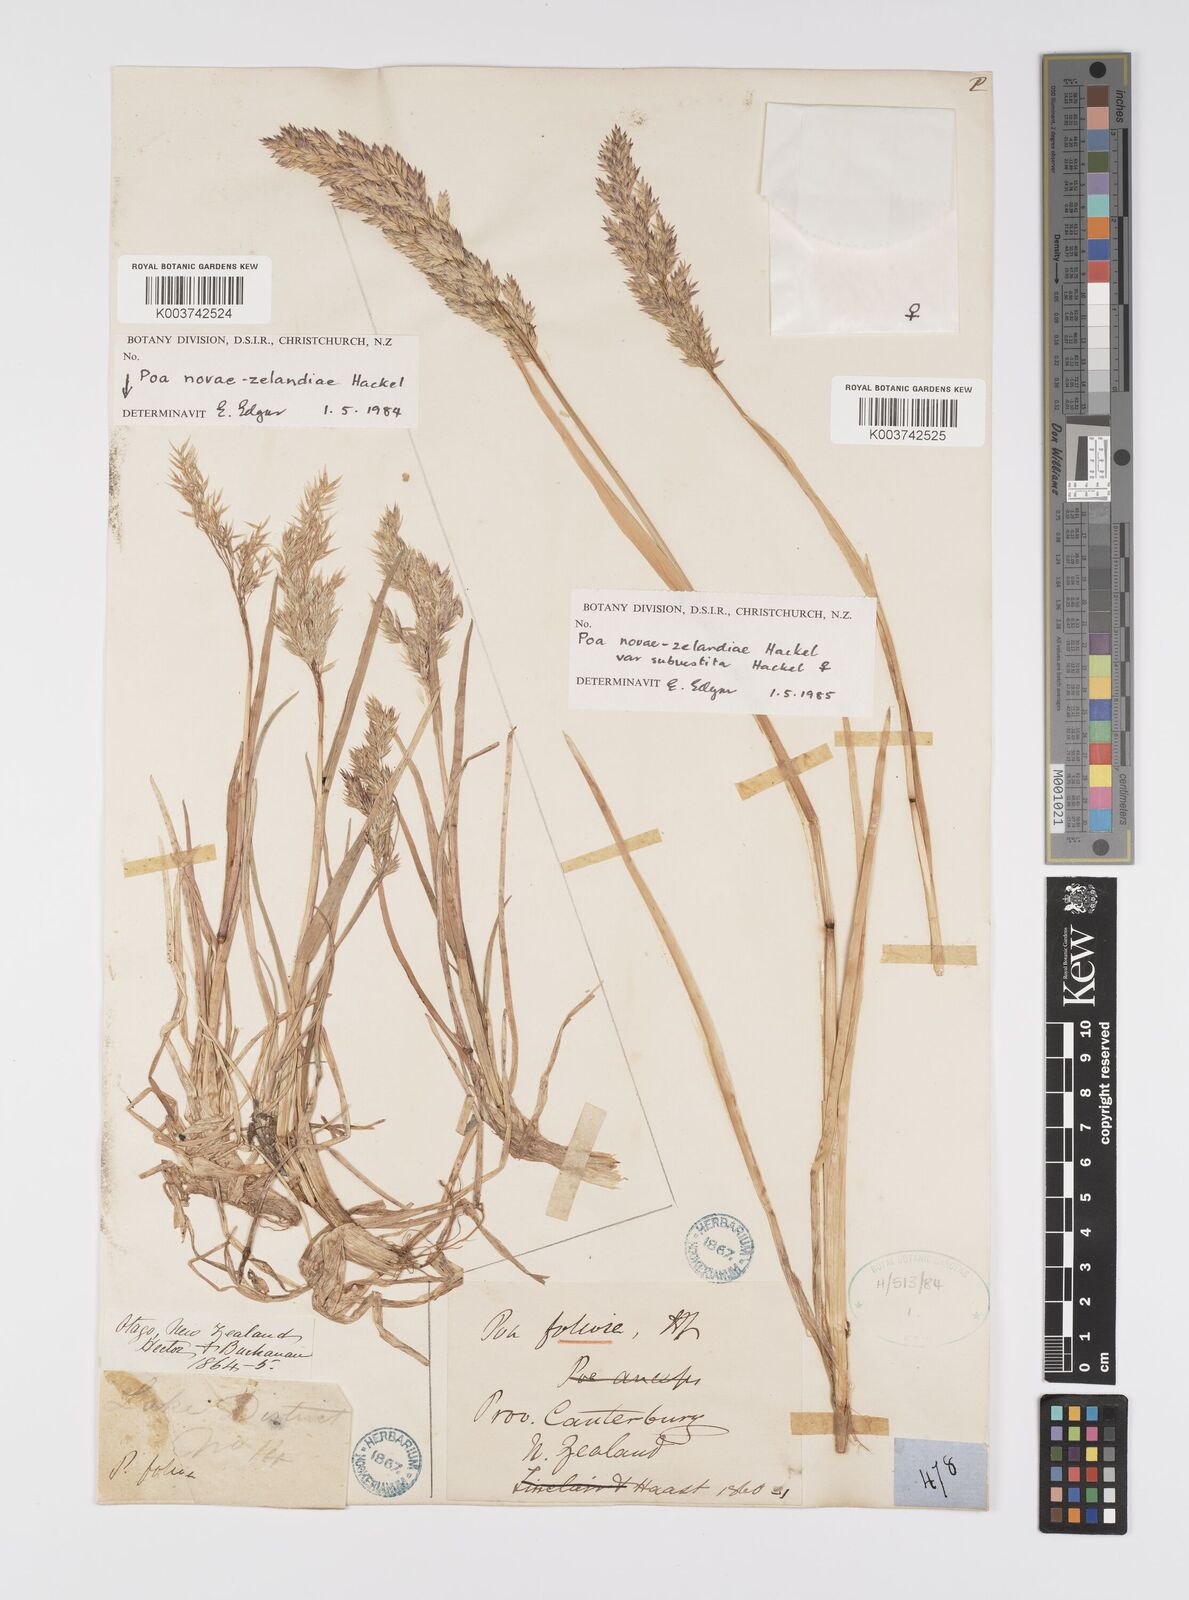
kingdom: Plantae
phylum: Tracheophyta
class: Liliopsida
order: Poales
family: Poaceae
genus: Poa
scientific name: Poa novae-zelandiae
